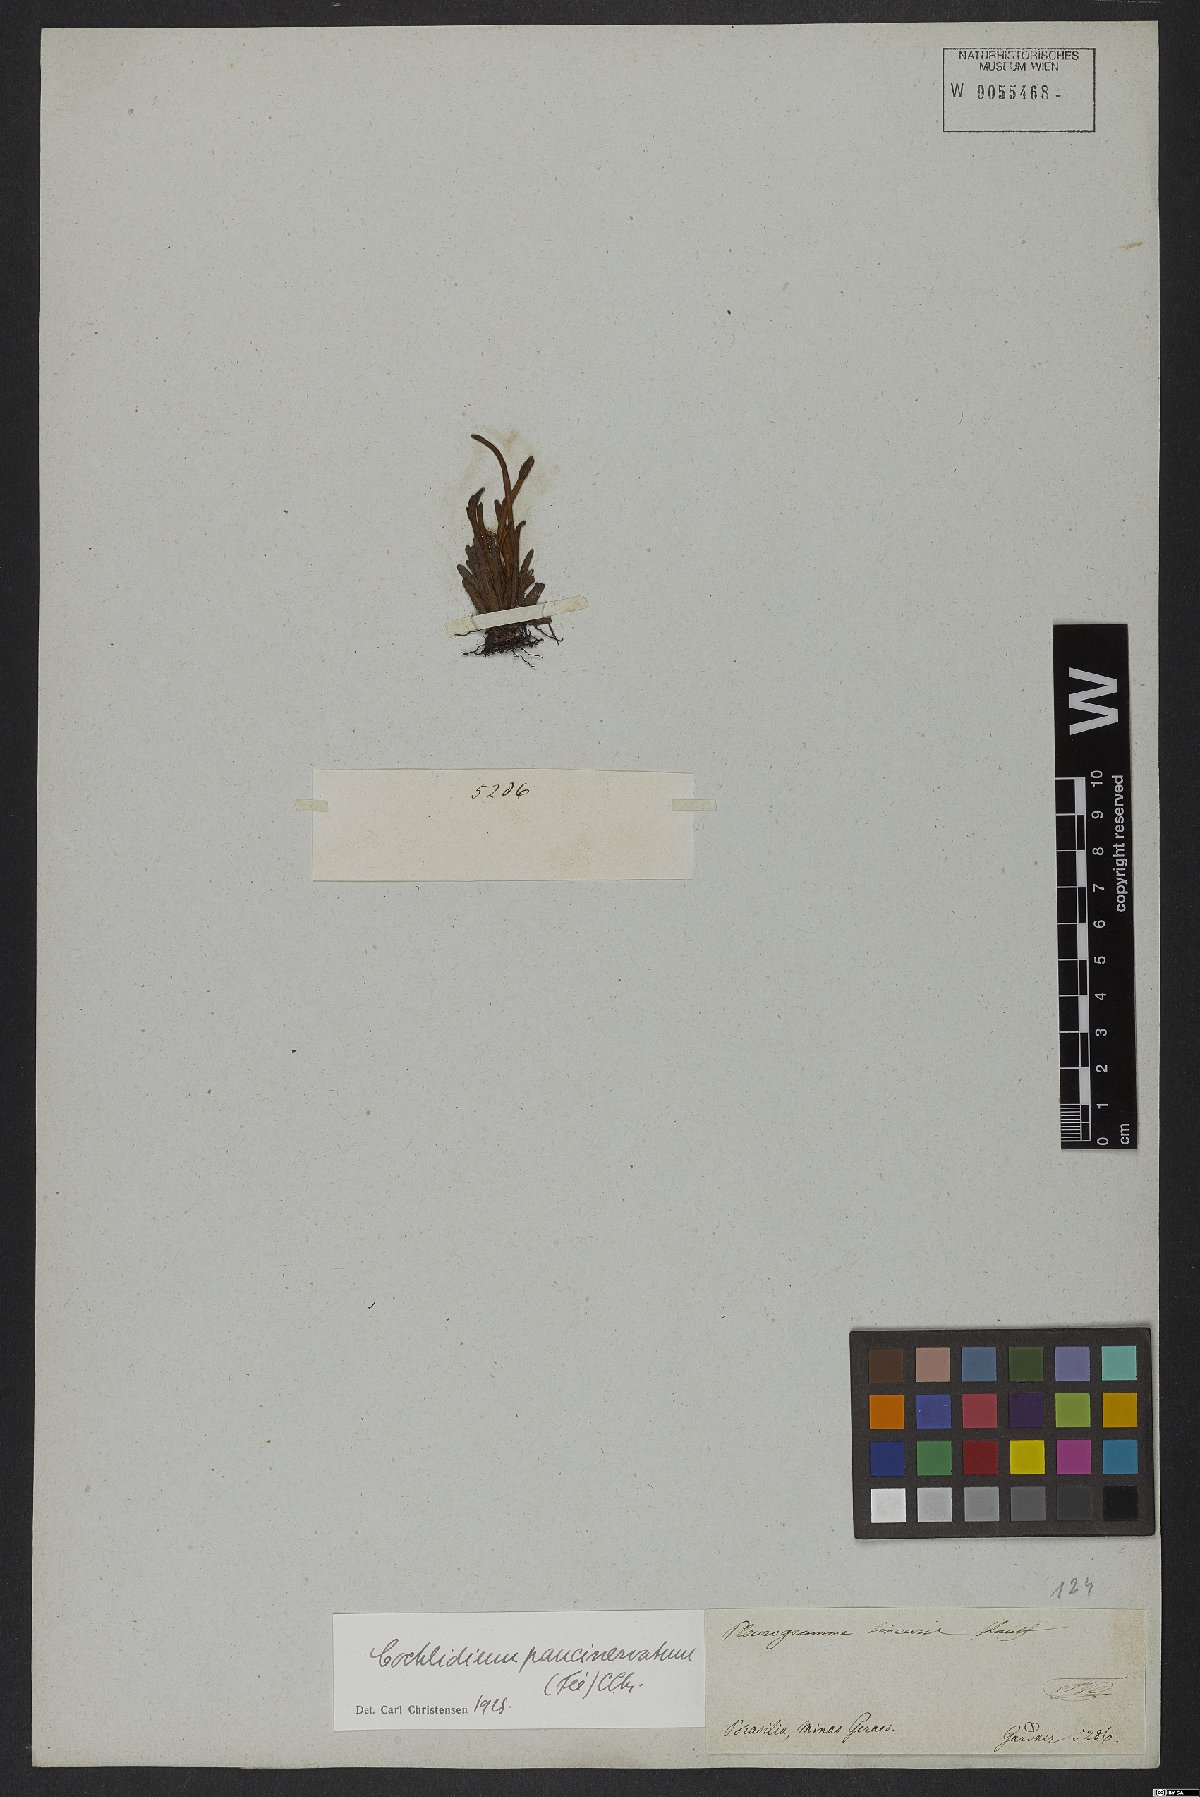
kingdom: Plantae
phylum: Tracheophyta
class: Polypodiopsida
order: Polypodiales
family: Polypodiaceae
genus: Cochlidium
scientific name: Cochlidium punctatum
